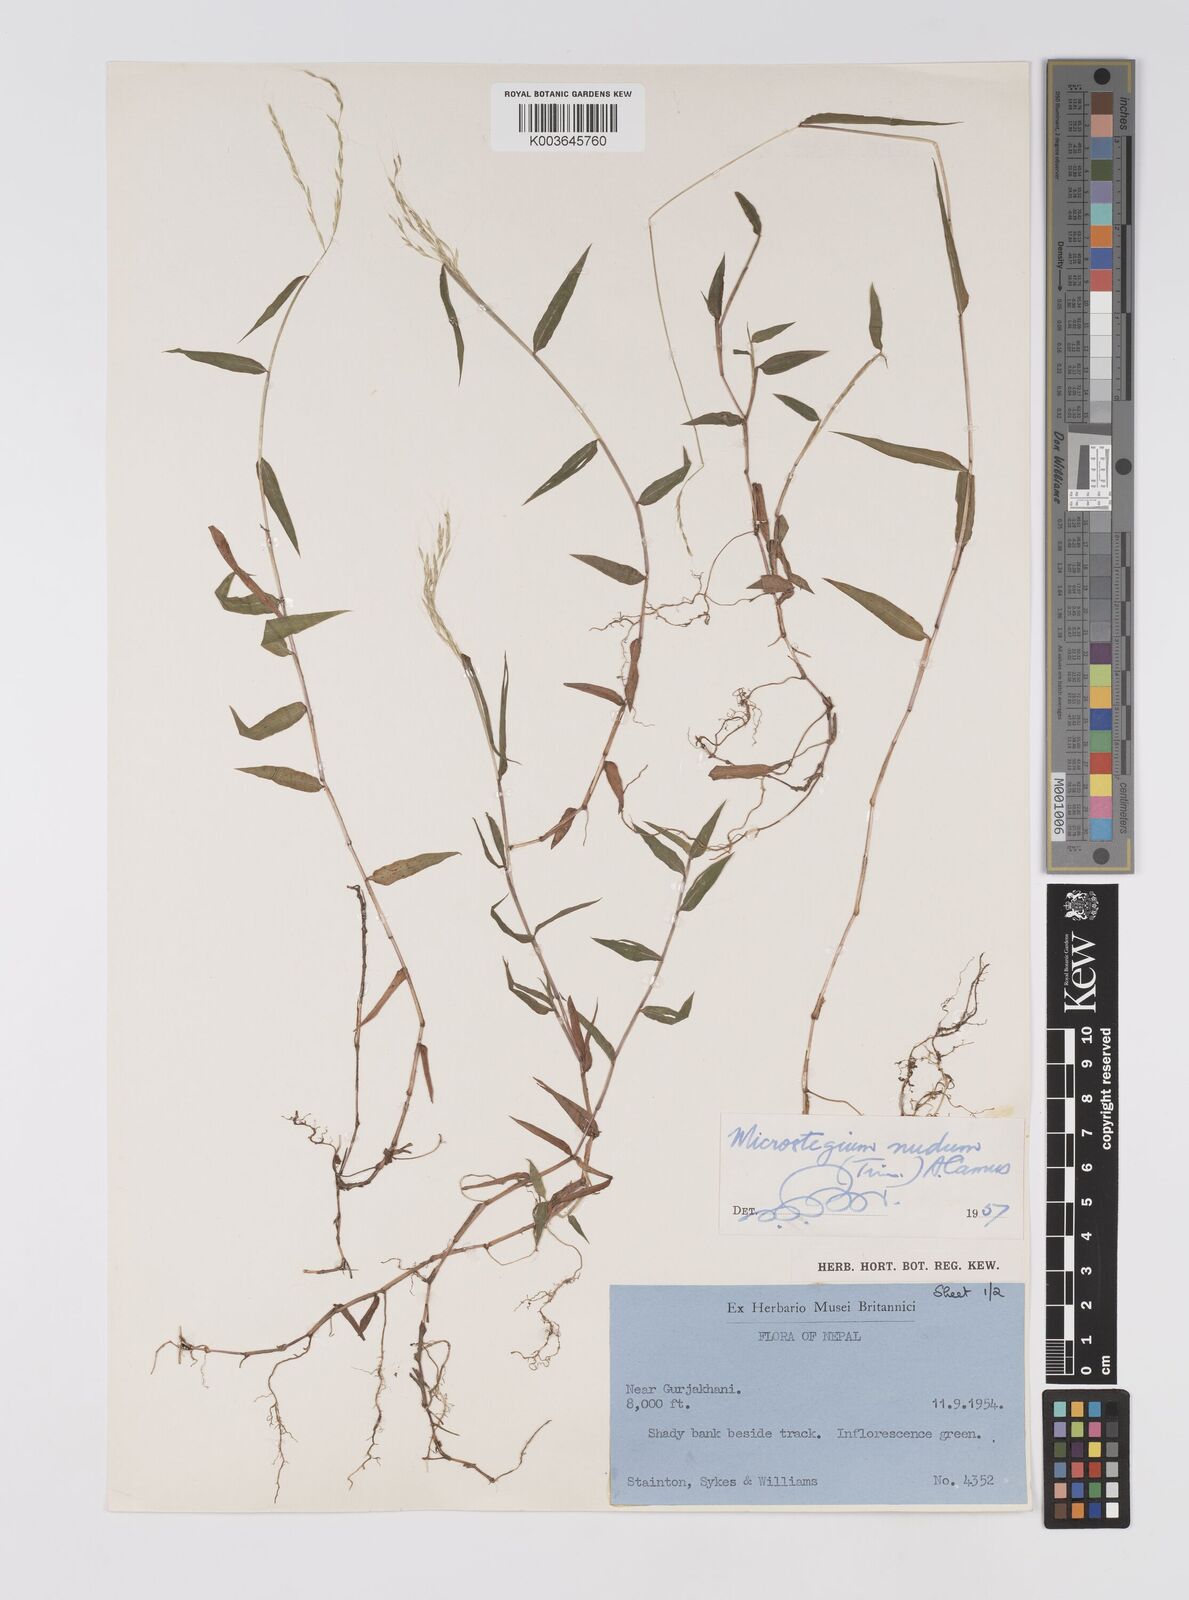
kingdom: Plantae
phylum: Tracheophyta
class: Liliopsida
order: Poales
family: Poaceae
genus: Microstegium
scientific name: Microstegium nudum
